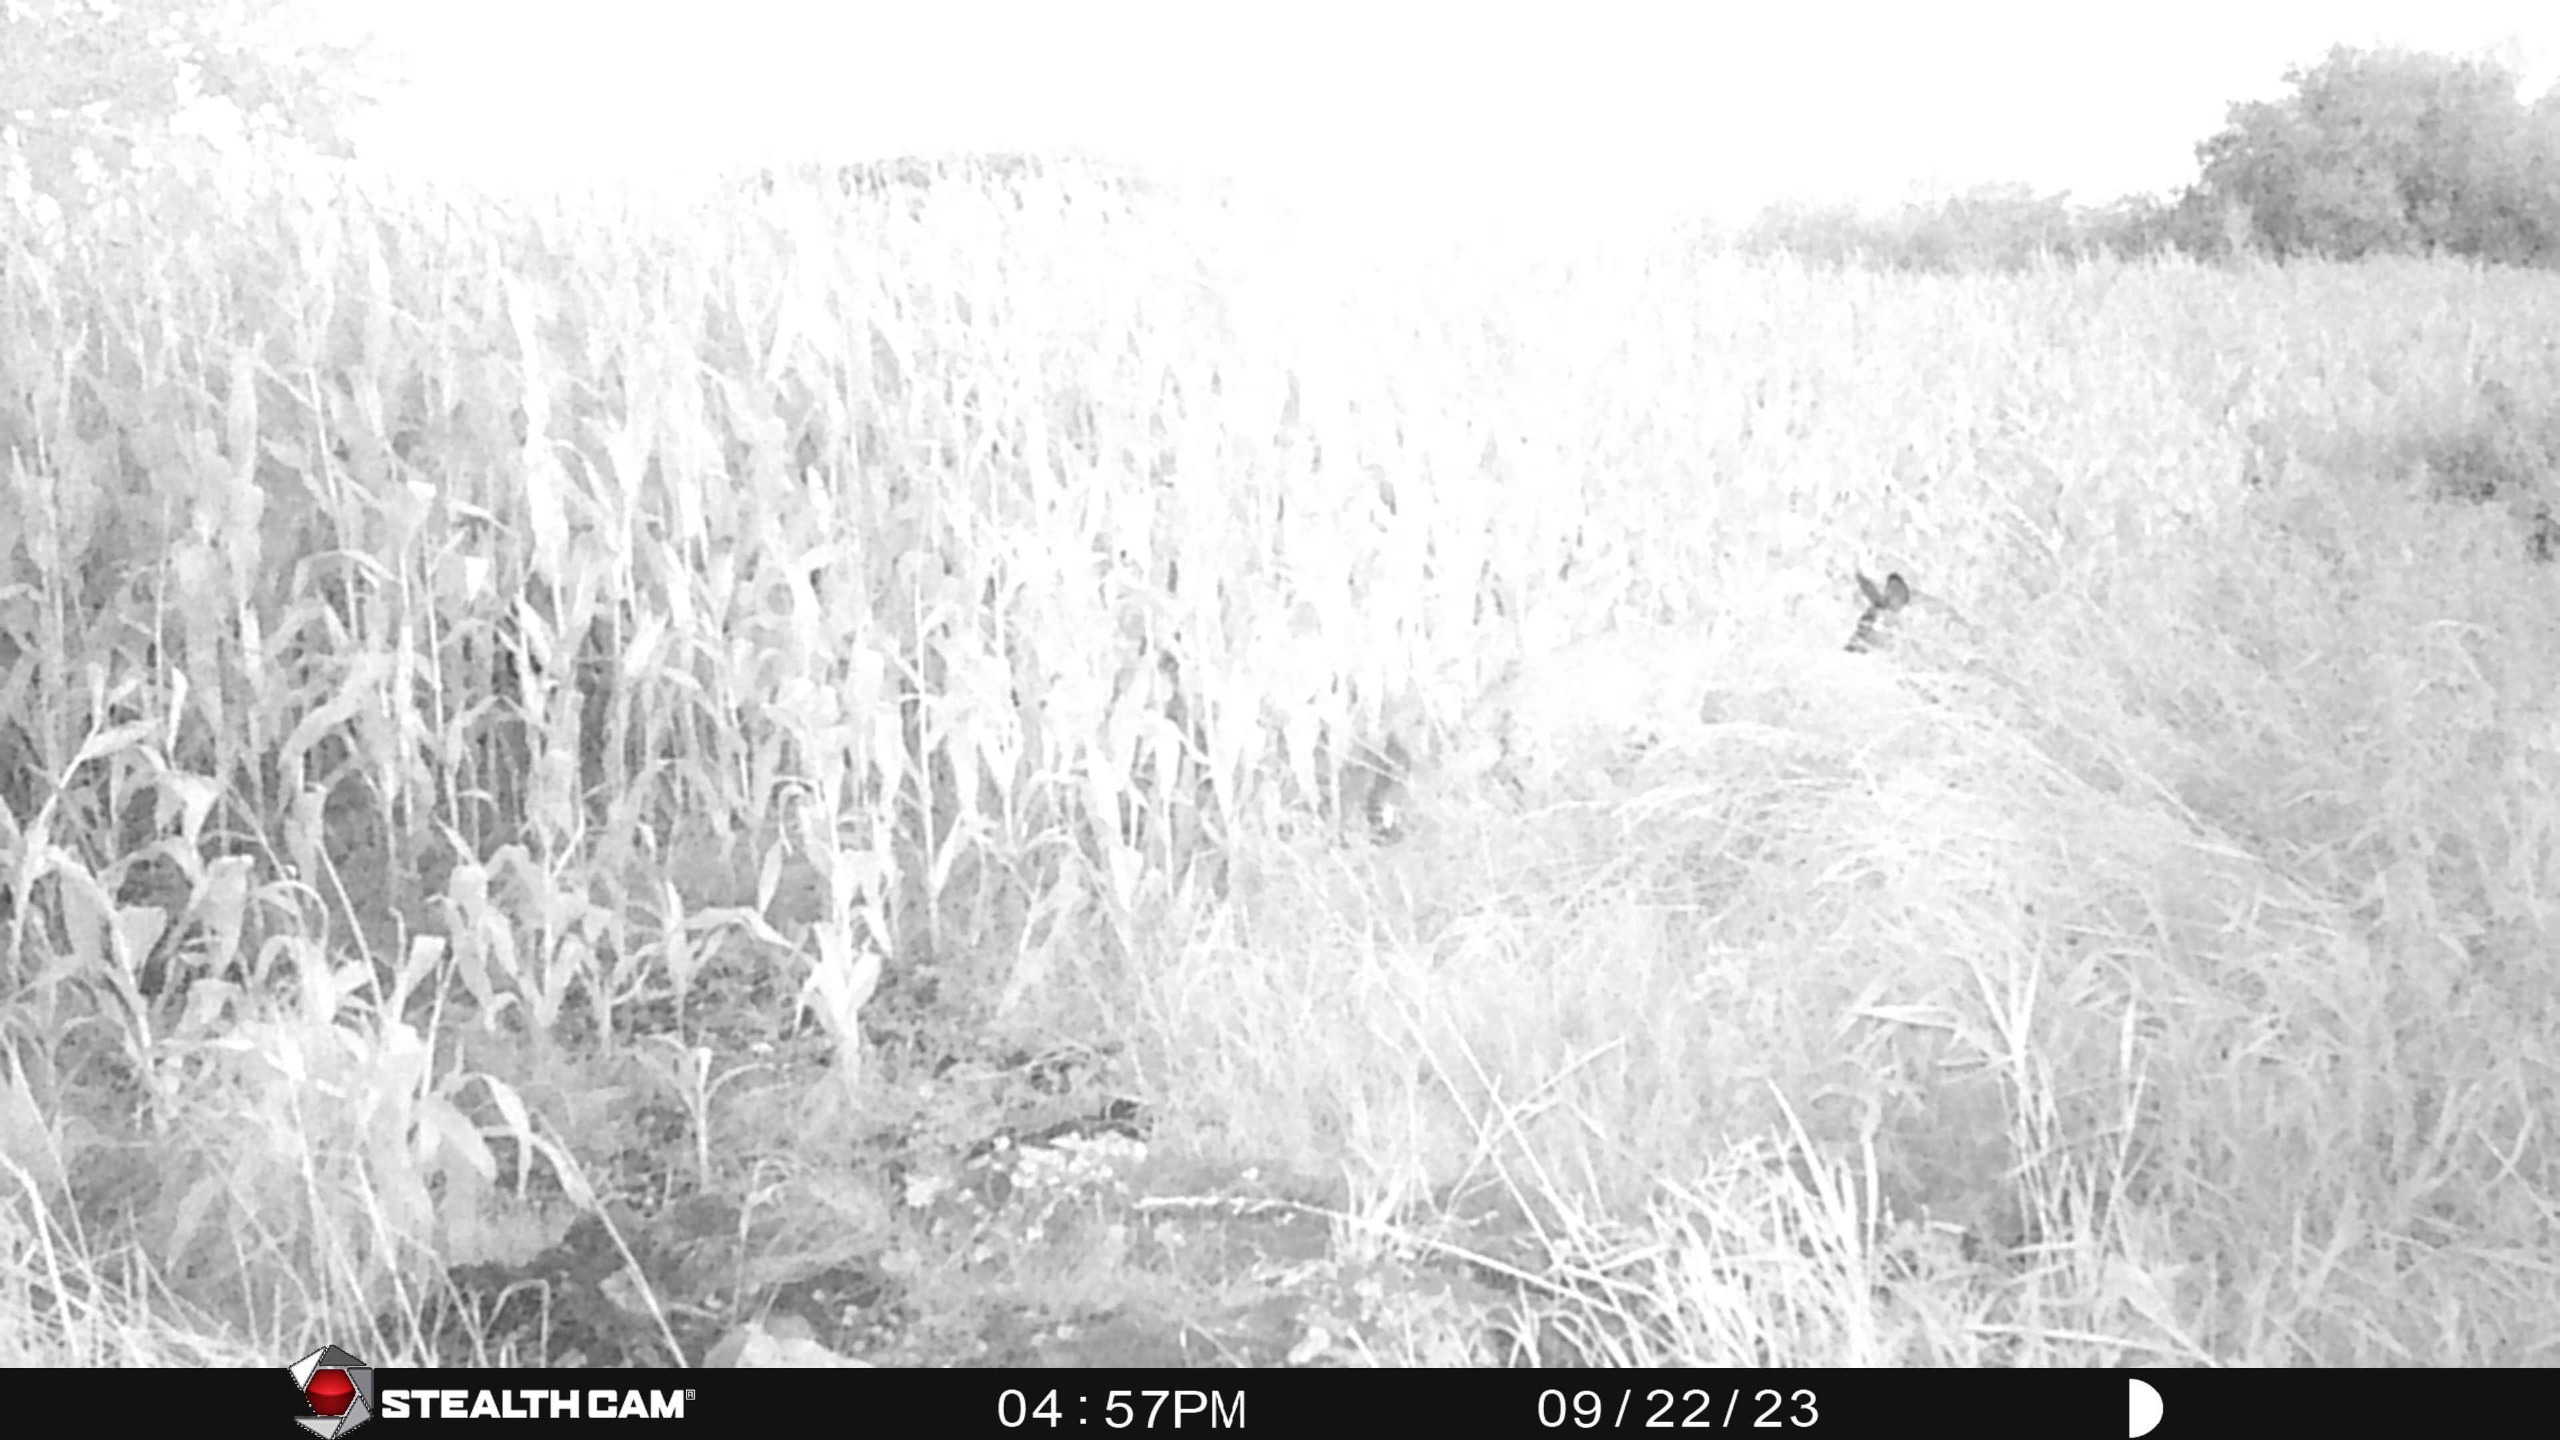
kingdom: Animalia
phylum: Chordata
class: Mammalia
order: Artiodactyla
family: Cervidae
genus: Capreolus
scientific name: Capreolus capreolus
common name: Rådyr
